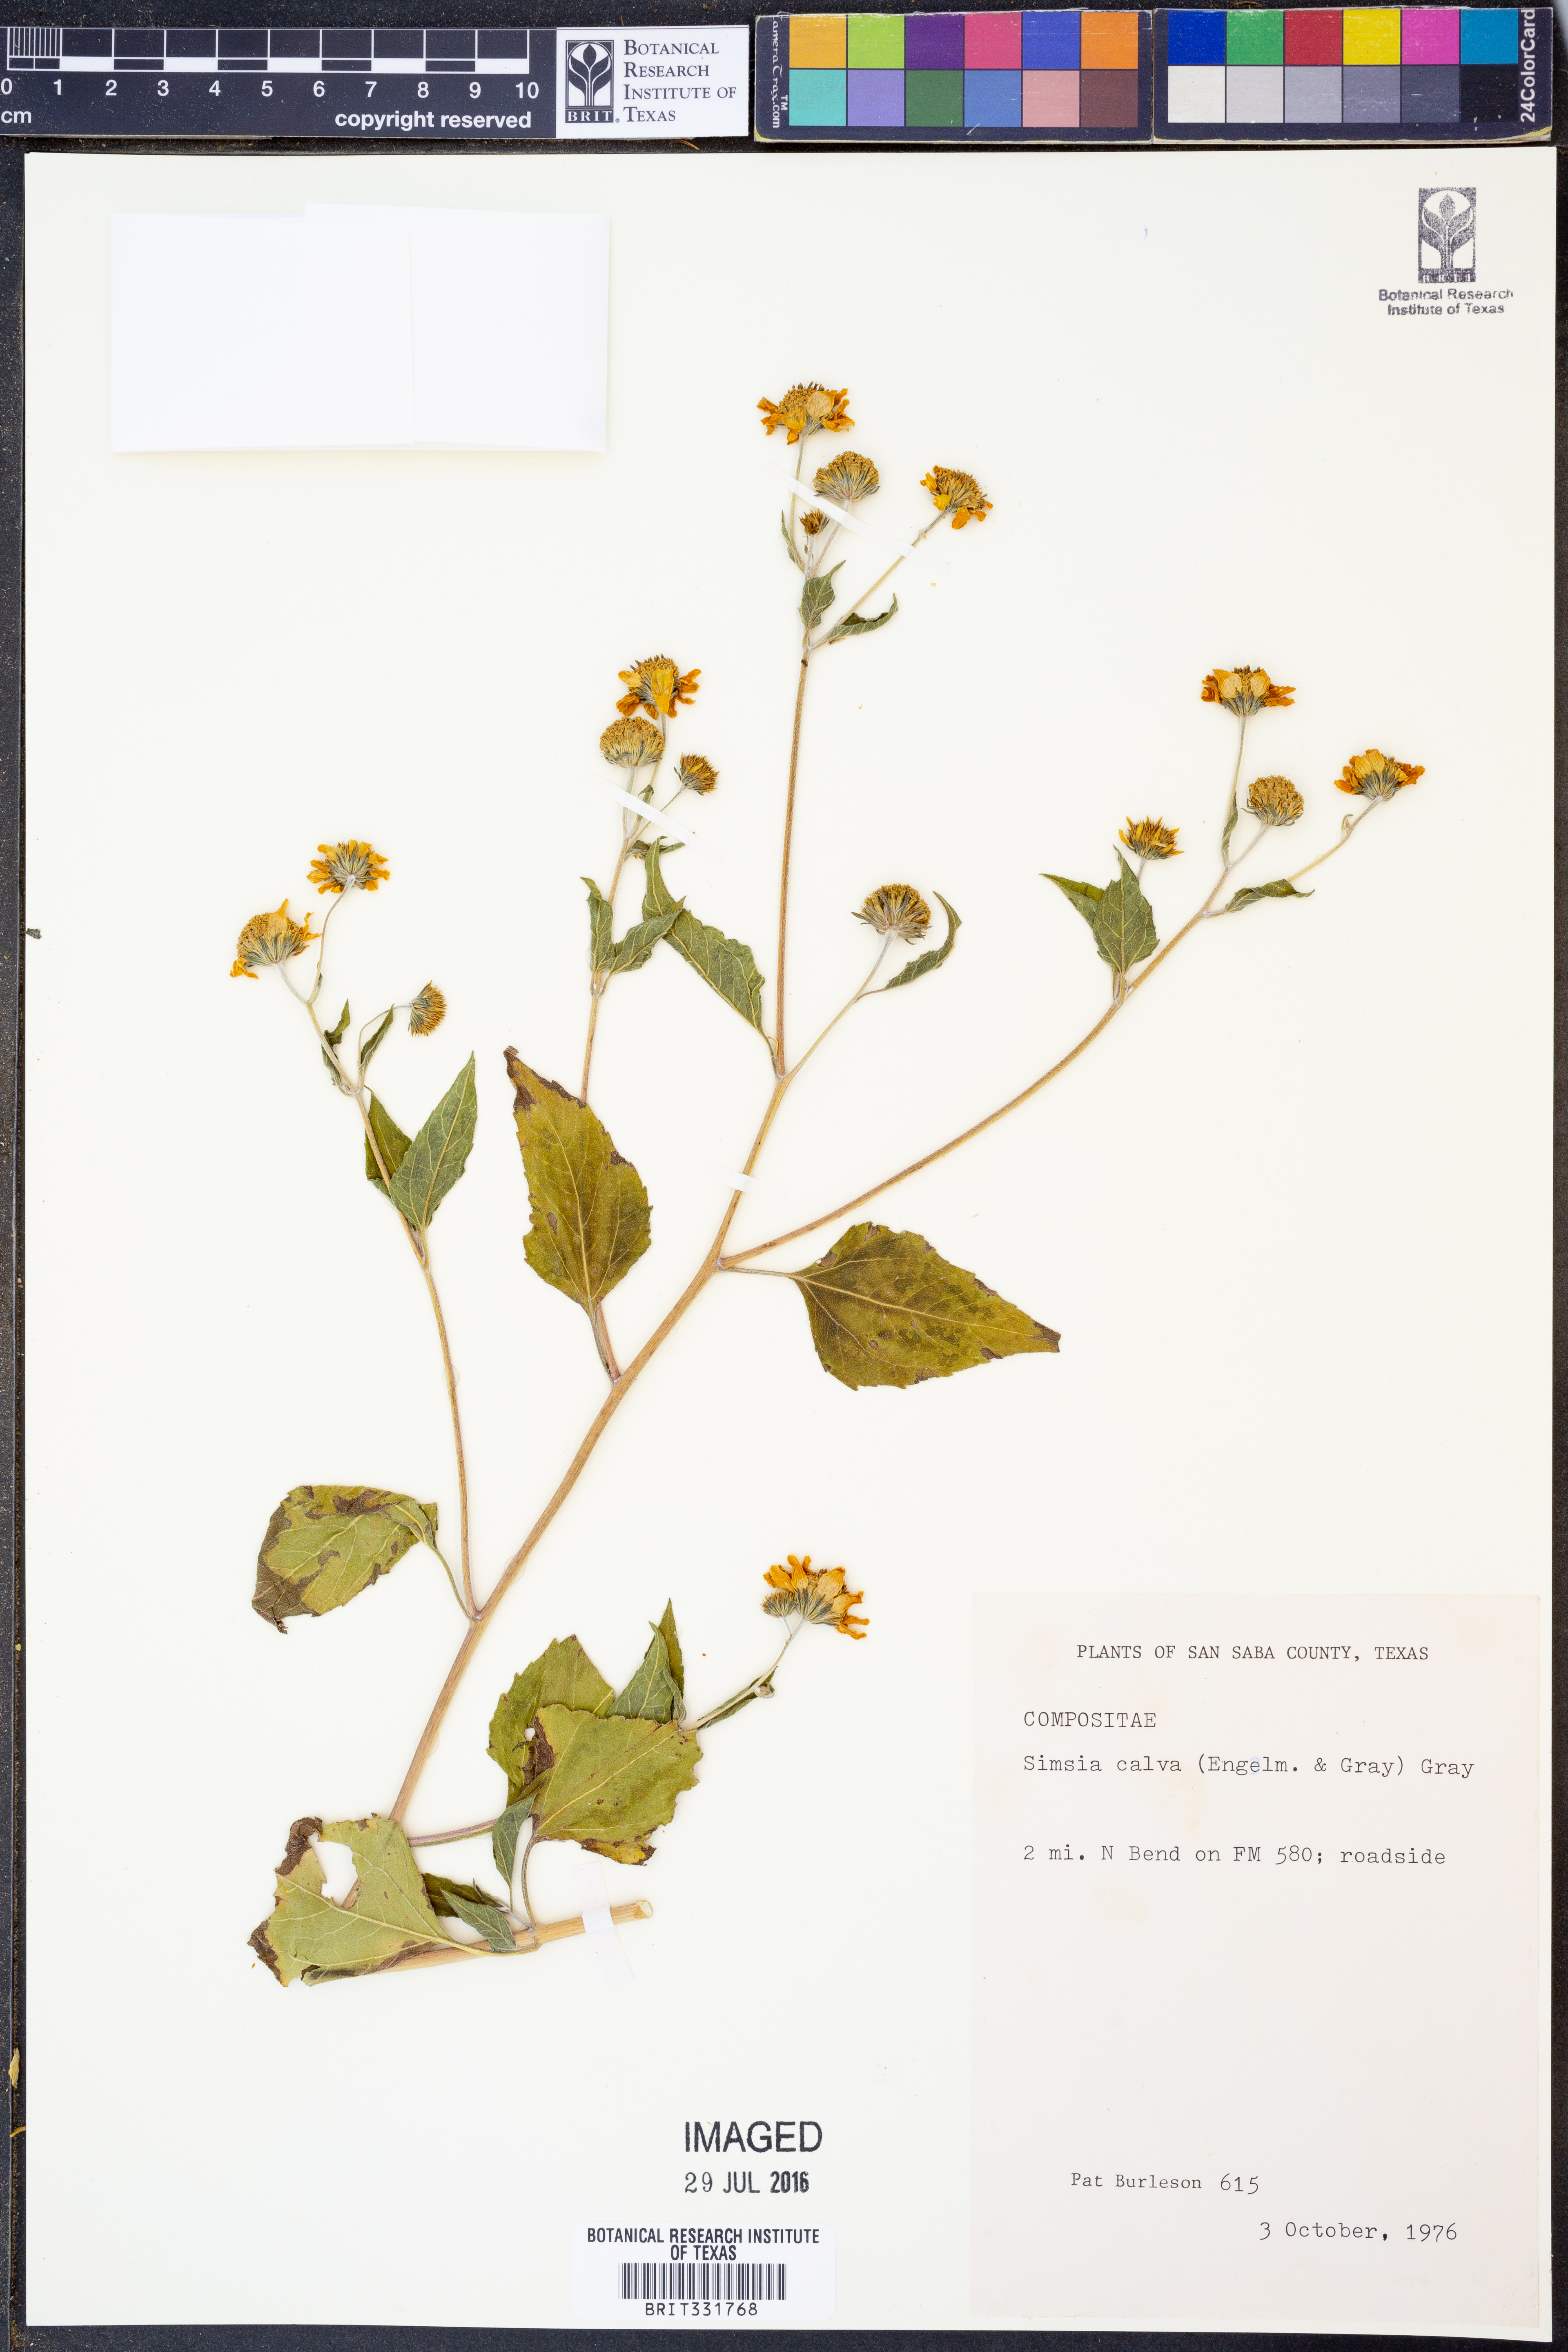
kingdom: Plantae
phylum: Tracheophyta
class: Magnoliopsida
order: Asterales
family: Asteraceae
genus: Simsia
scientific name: Simsia calva
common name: Awnless bush-sunflower
